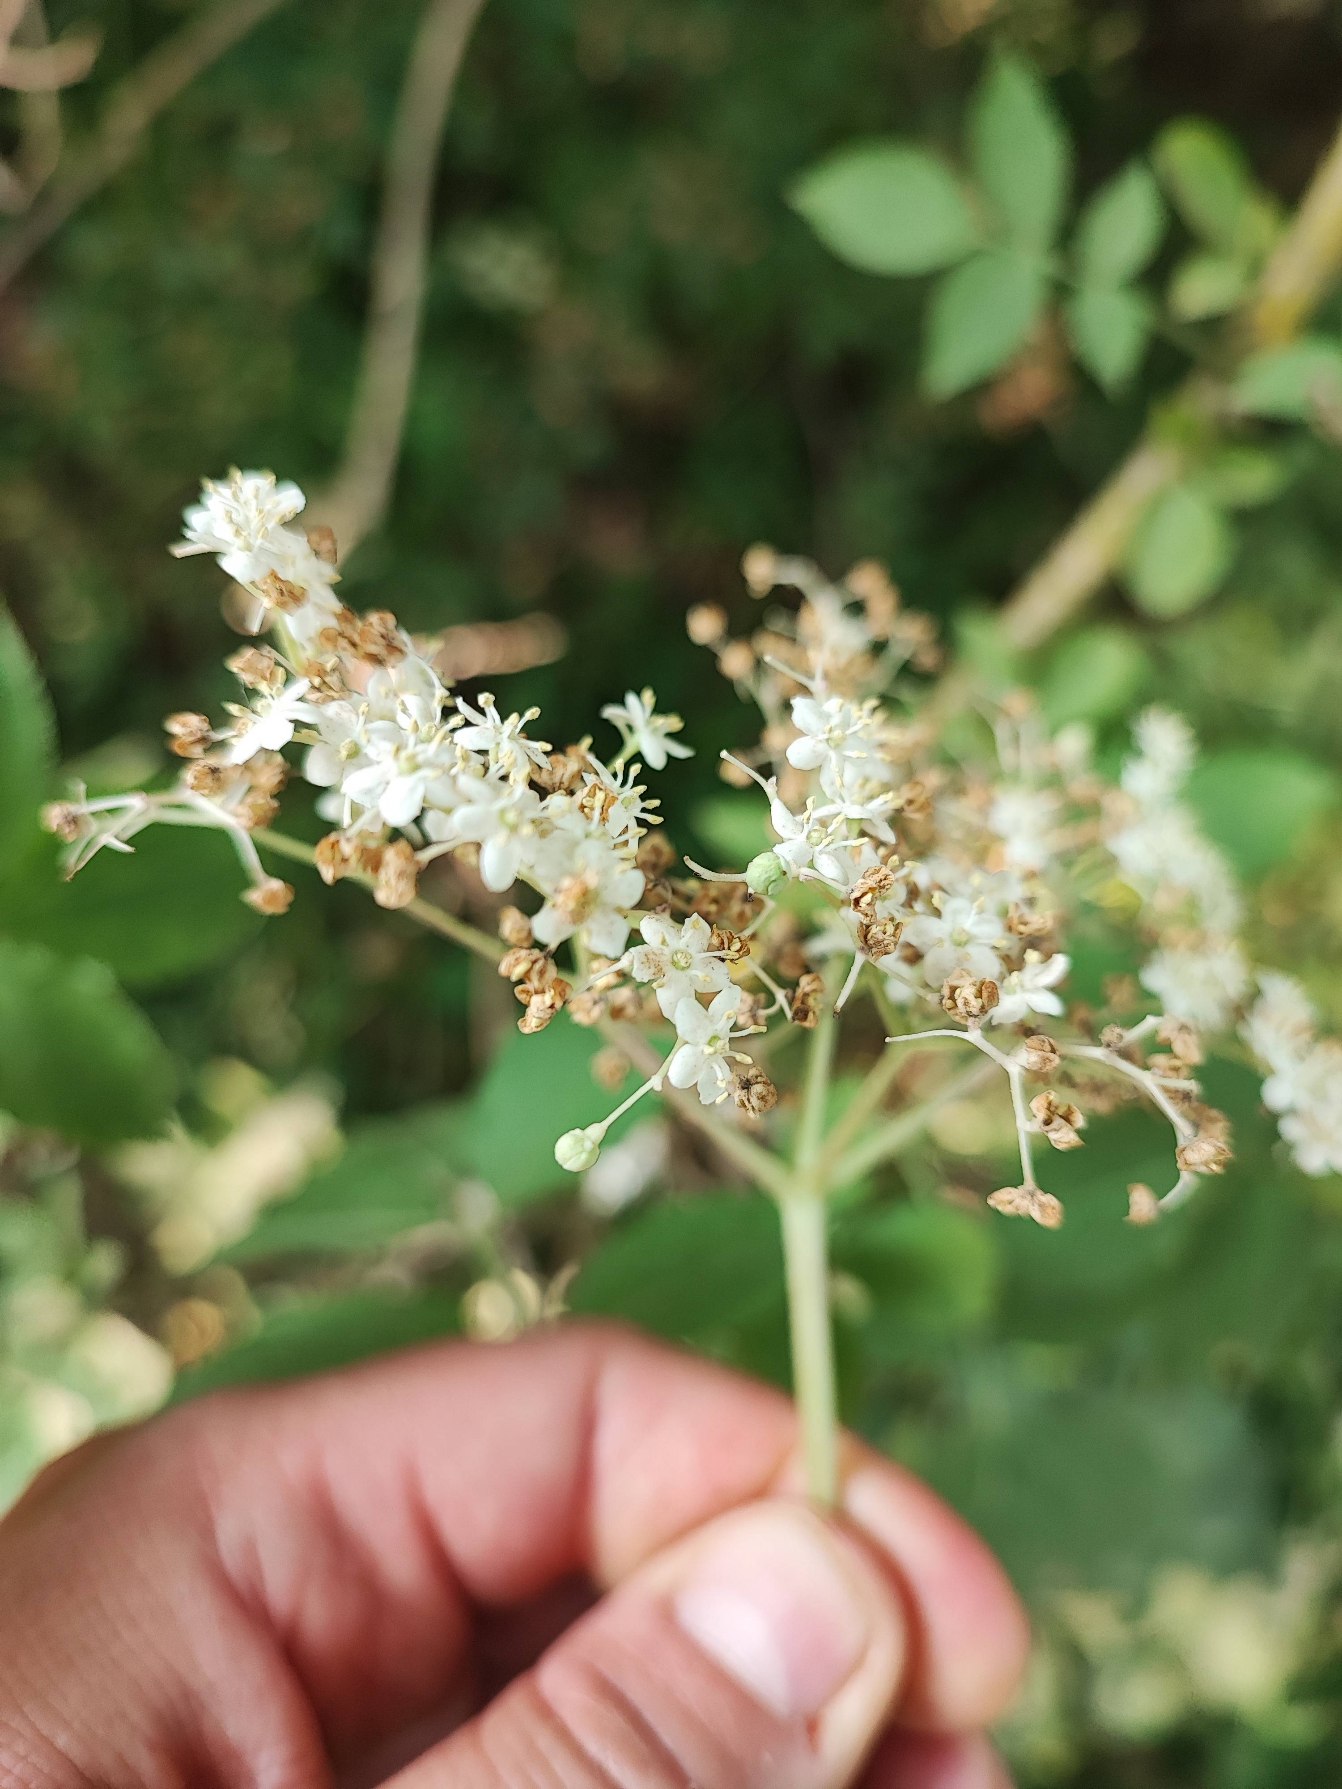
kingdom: Animalia
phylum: Arthropoda
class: Insecta
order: Diptera
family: Cecidomyiidae
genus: Placochela
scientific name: Placochela nigripes
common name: Hyldeblomstgalmyg
